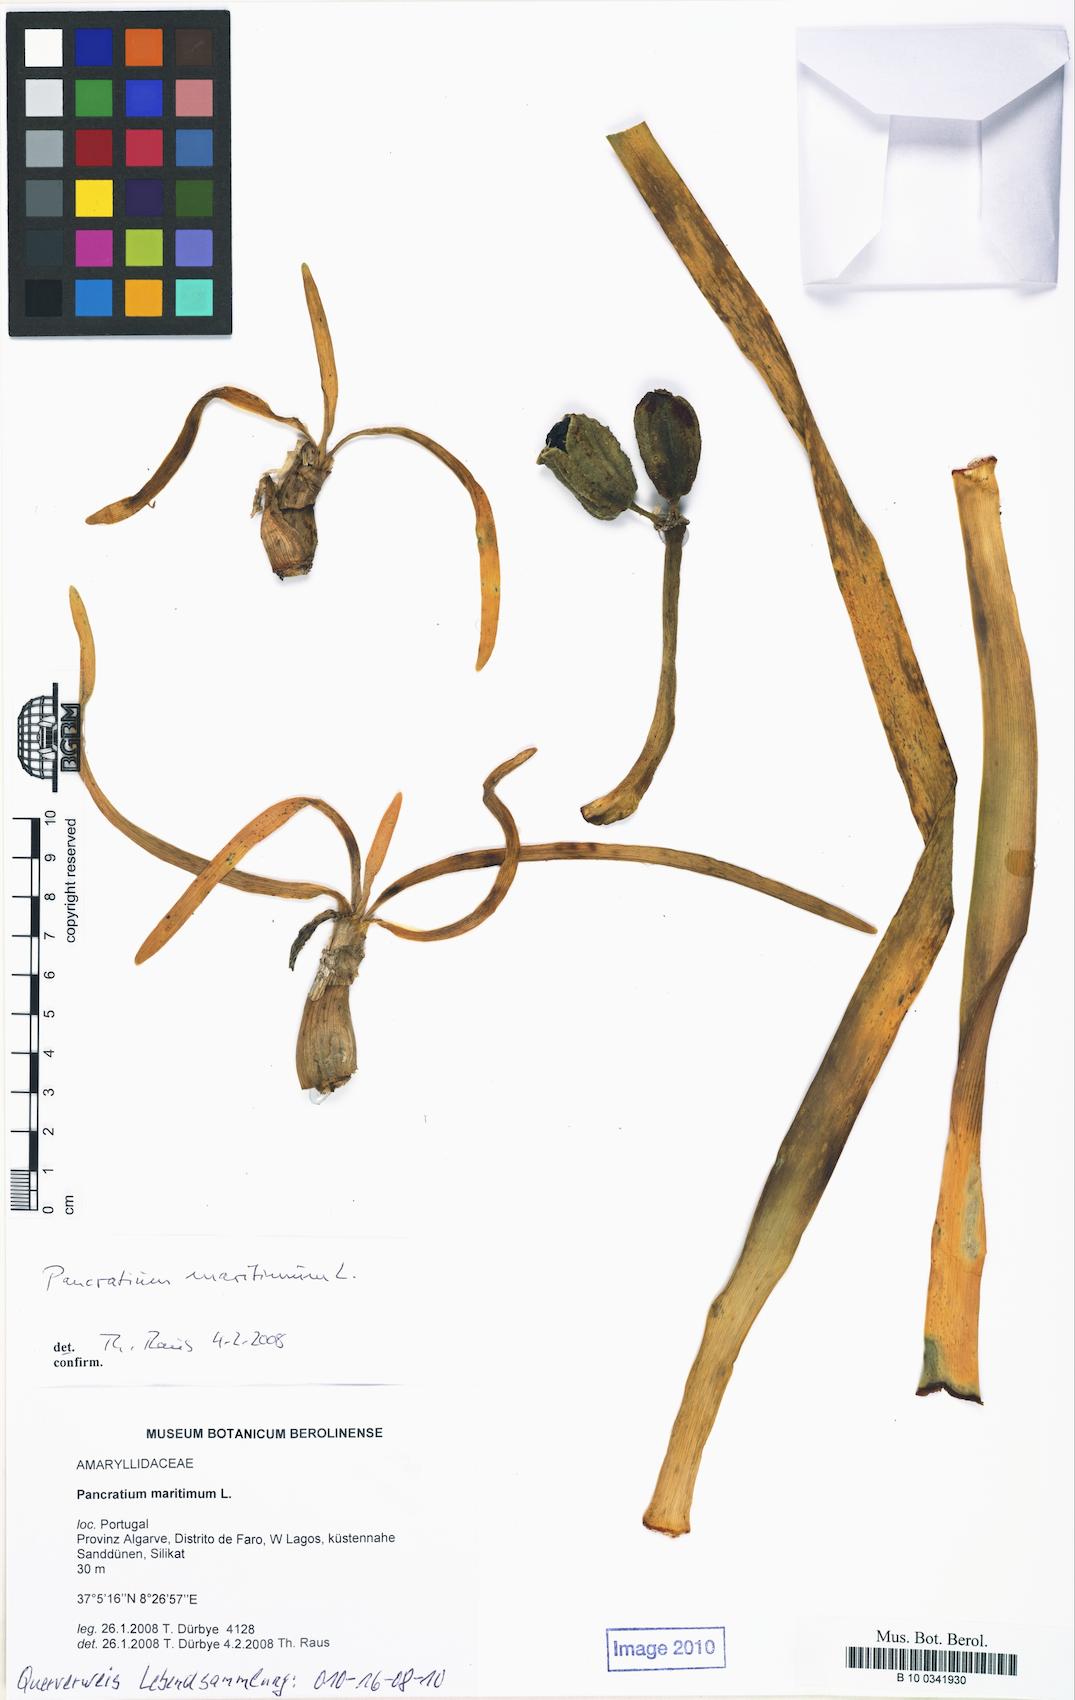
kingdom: Plantae
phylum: Tracheophyta
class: Liliopsida
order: Asparagales
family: Amaryllidaceae
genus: Pancratium
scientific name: Pancratium maritimum
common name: Sea-daffodil
